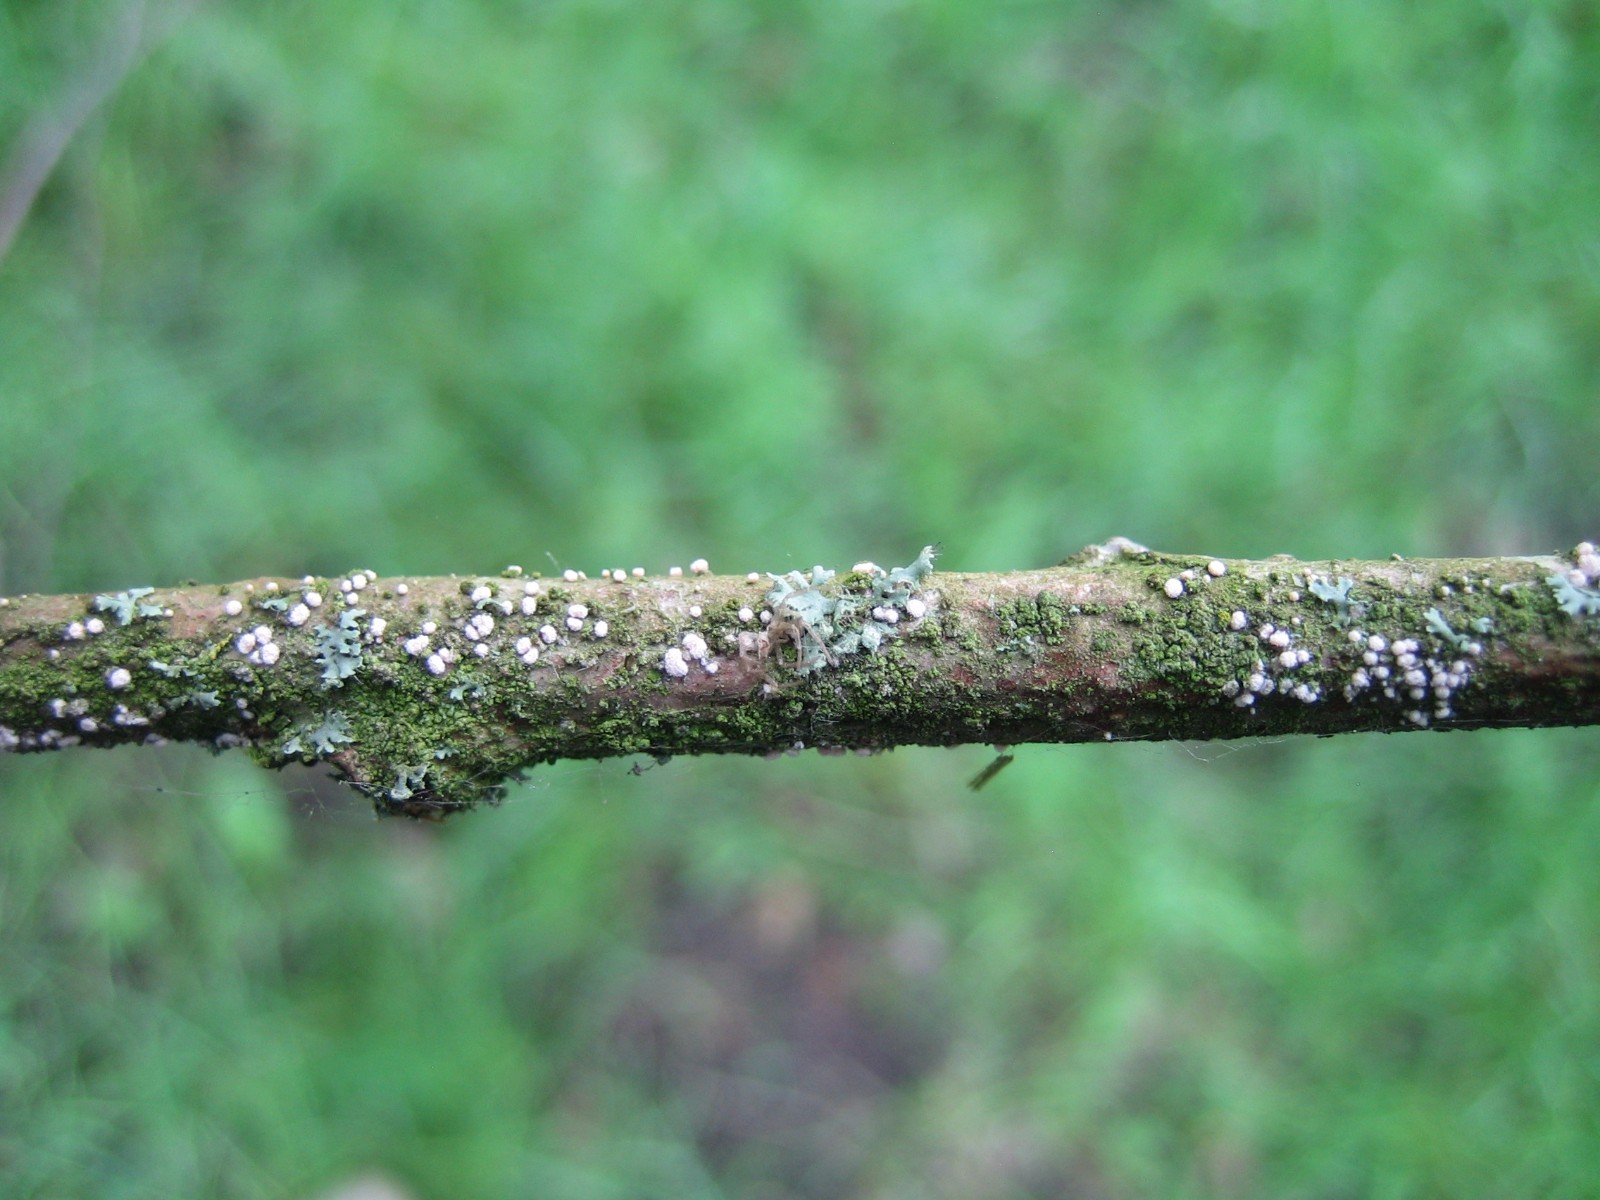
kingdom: Fungi
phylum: Ascomycota
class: Leotiomycetes
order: Helotiales
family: Lachnaceae
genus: Capitotricha
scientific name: Capitotricha bicolor
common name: prægtig frynseskive
